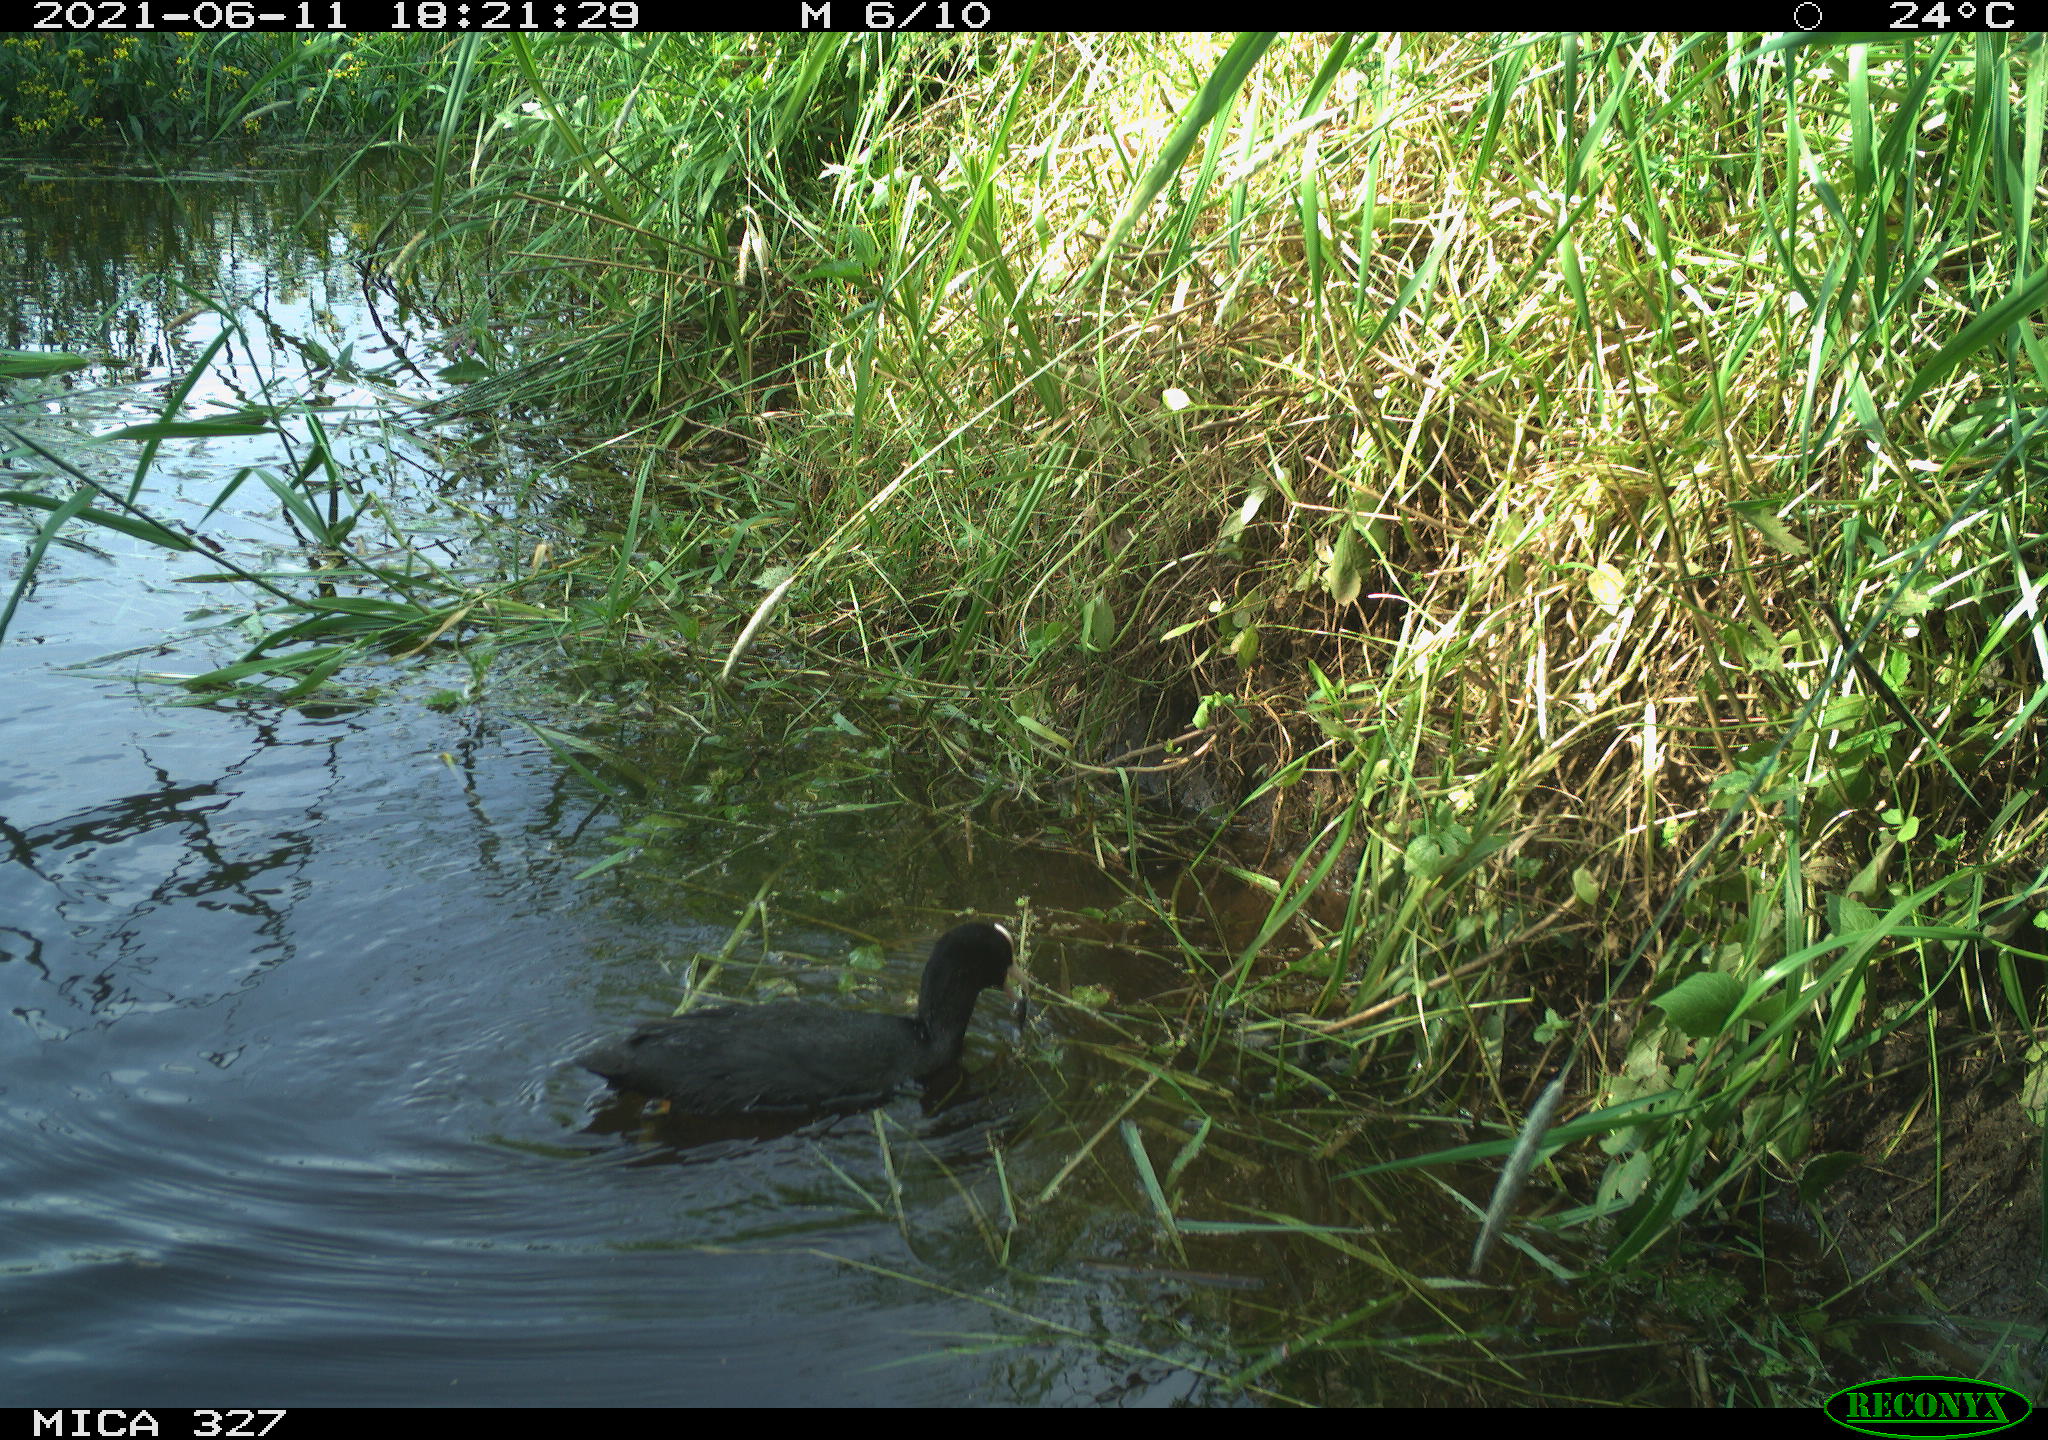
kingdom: Animalia
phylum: Chordata
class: Aves
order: Gruiformes
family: Rallidae
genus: Fulica
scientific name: Fulica atra
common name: Eurasian coot
